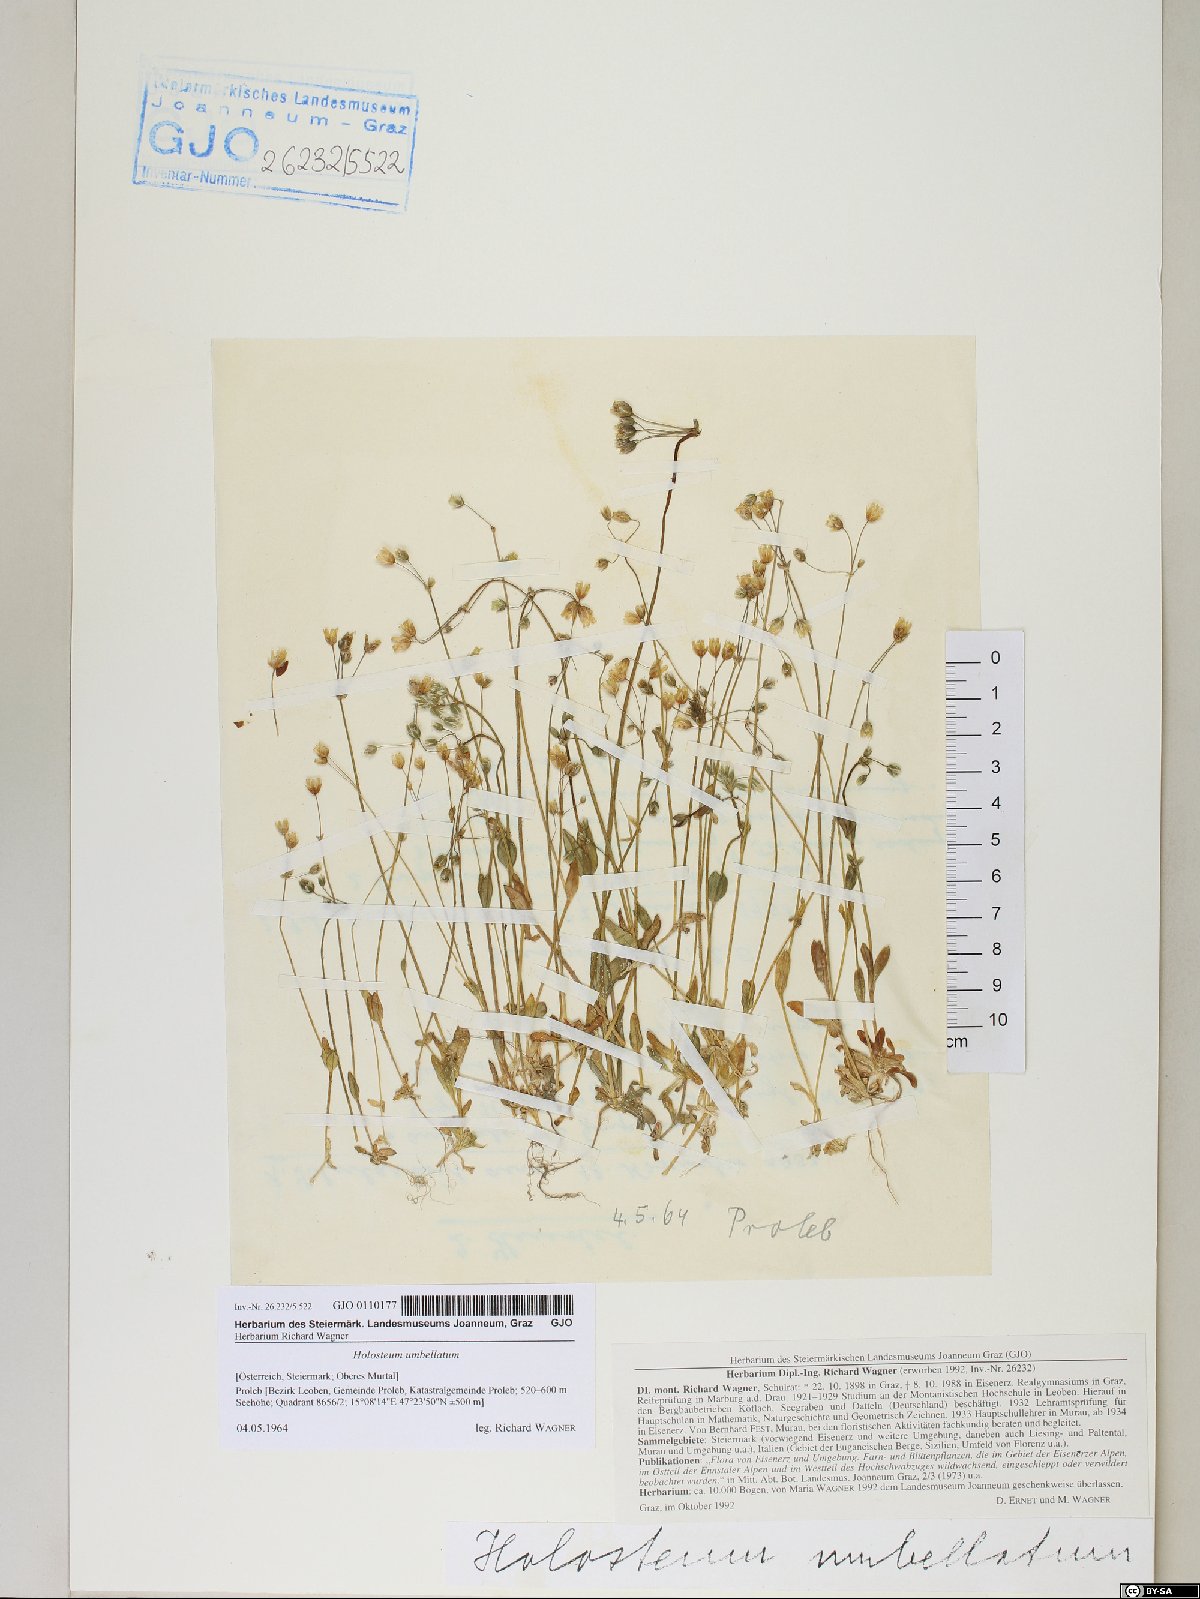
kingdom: Plantae
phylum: Tracheophyta
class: Magnoliopsida
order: Caryophyllales
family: Caryophyllaceae
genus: Holosteum
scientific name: Holosteum umbellatum
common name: Jagged chickweed
